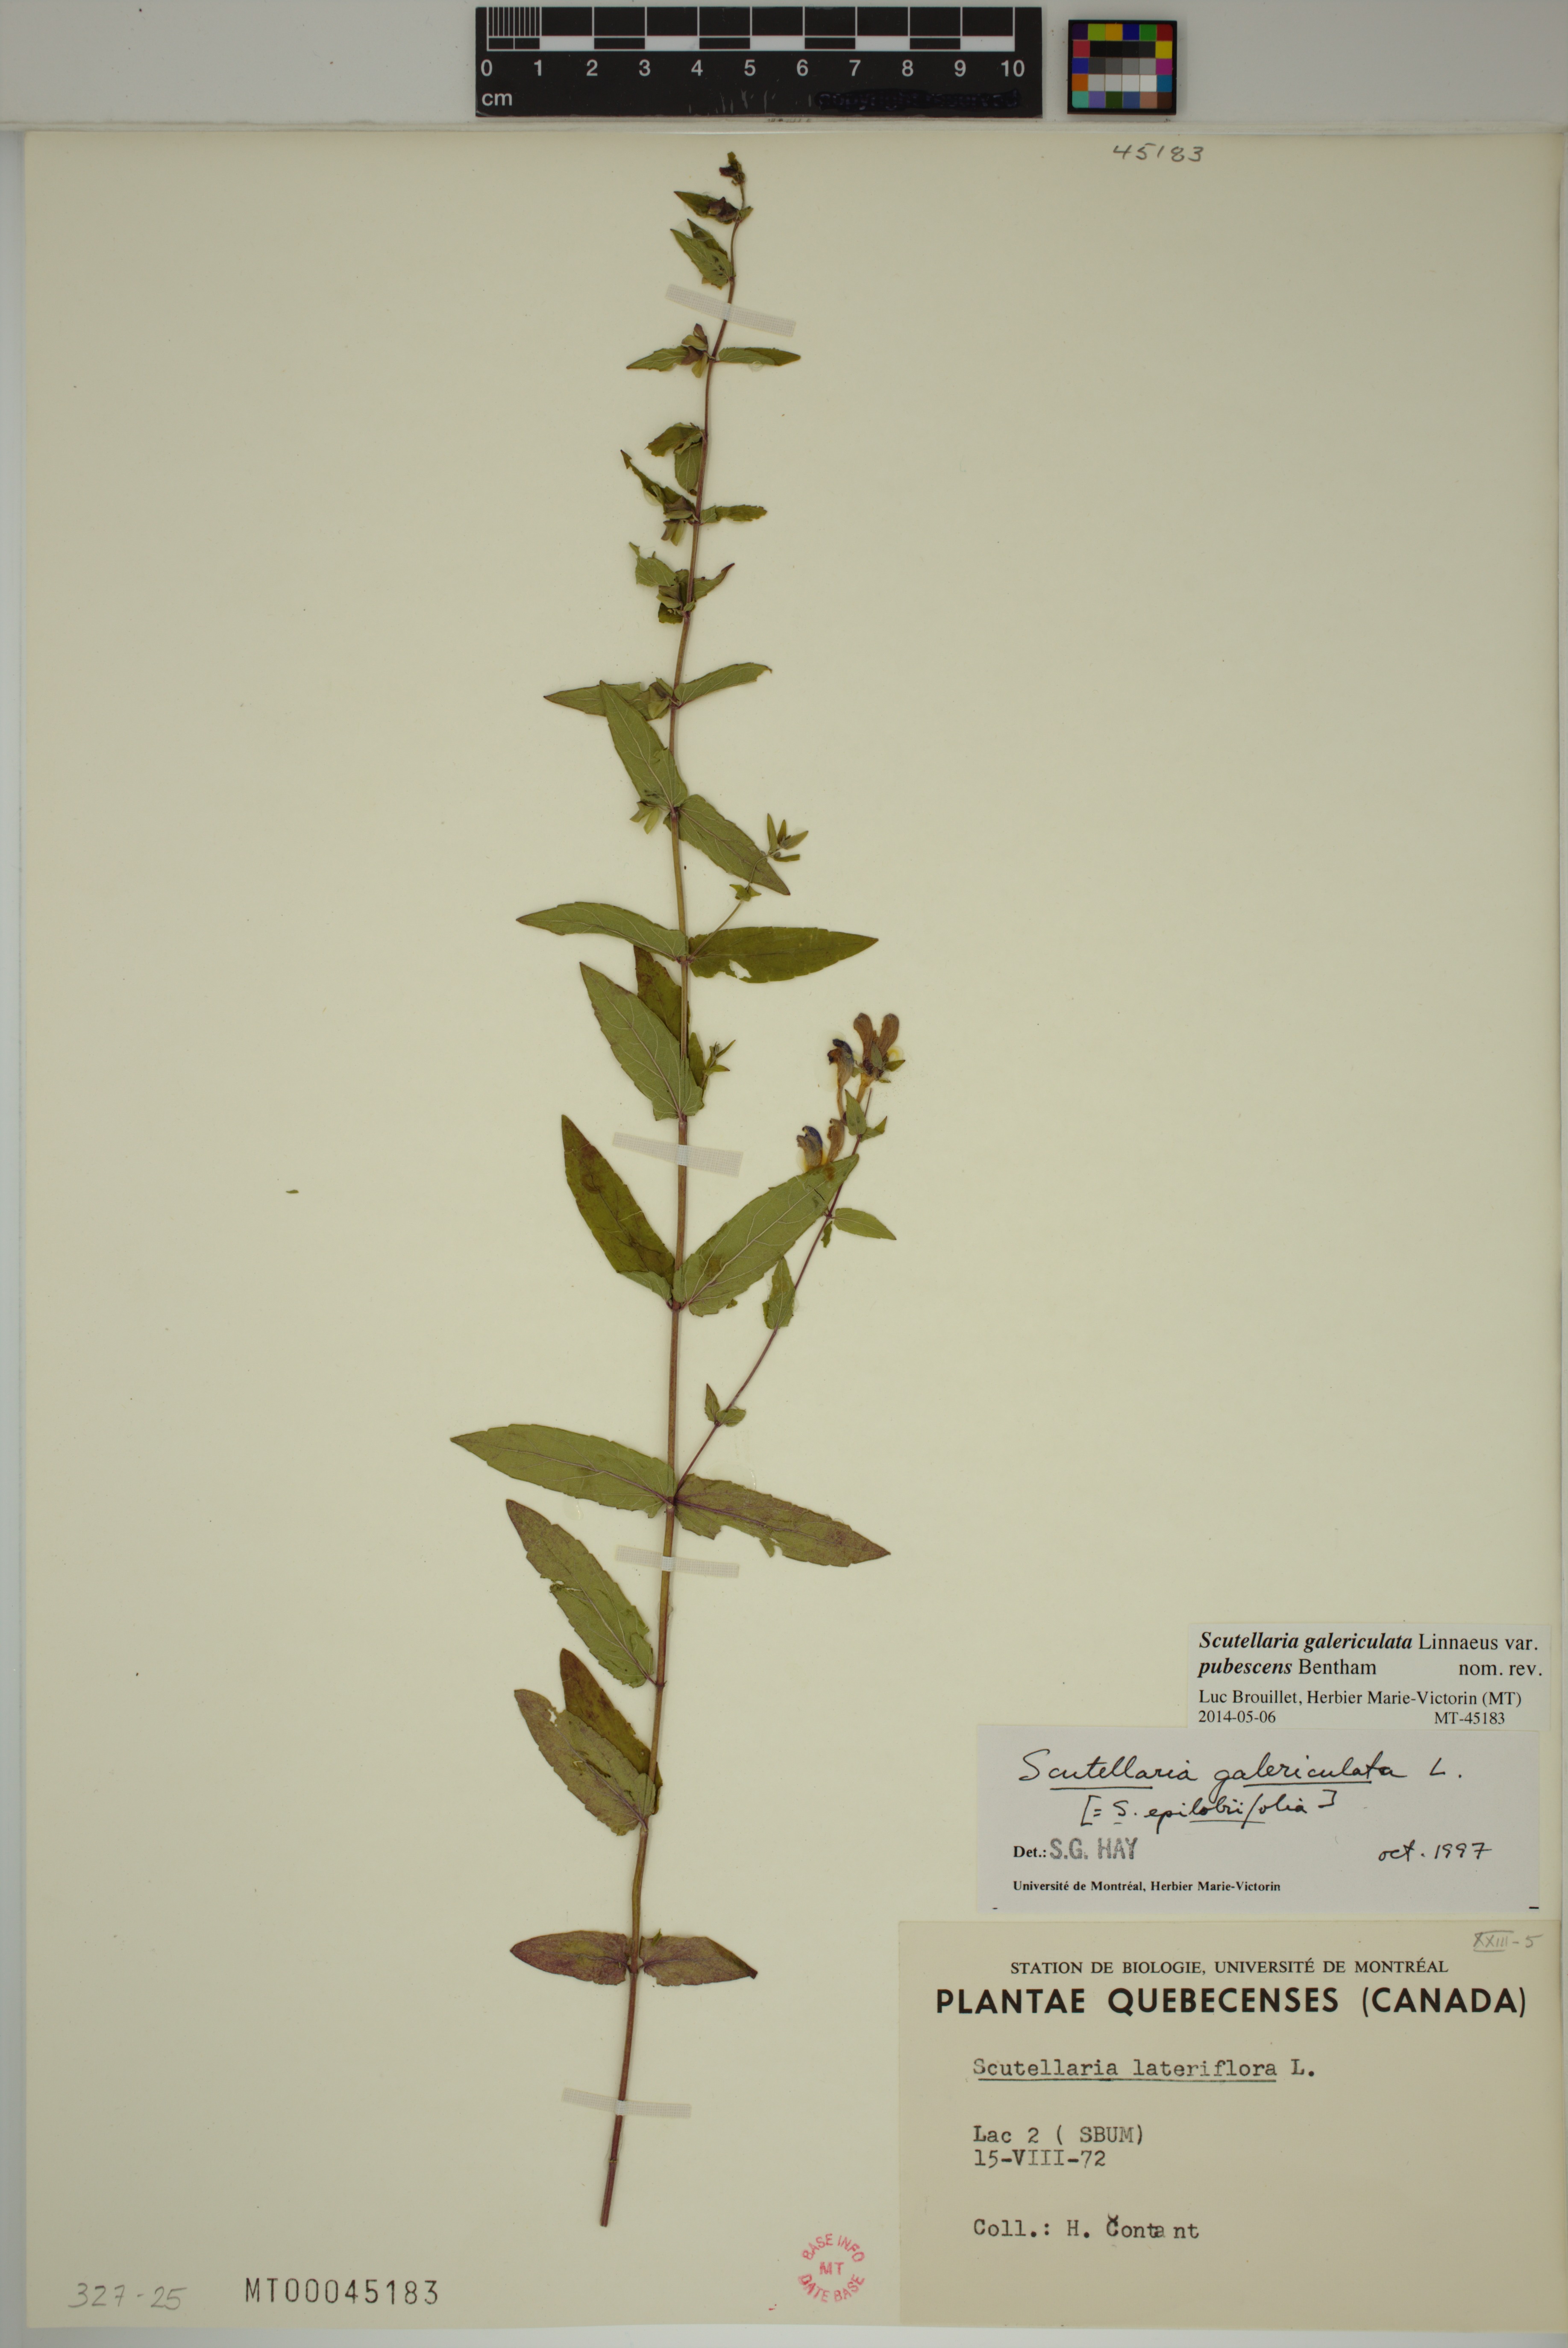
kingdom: Plantae
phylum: Tracheophyta
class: Magnoliopsida
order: Lamiales
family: Lamiaceae
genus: Scutellaria
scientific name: Scutellaria nicholsonii
